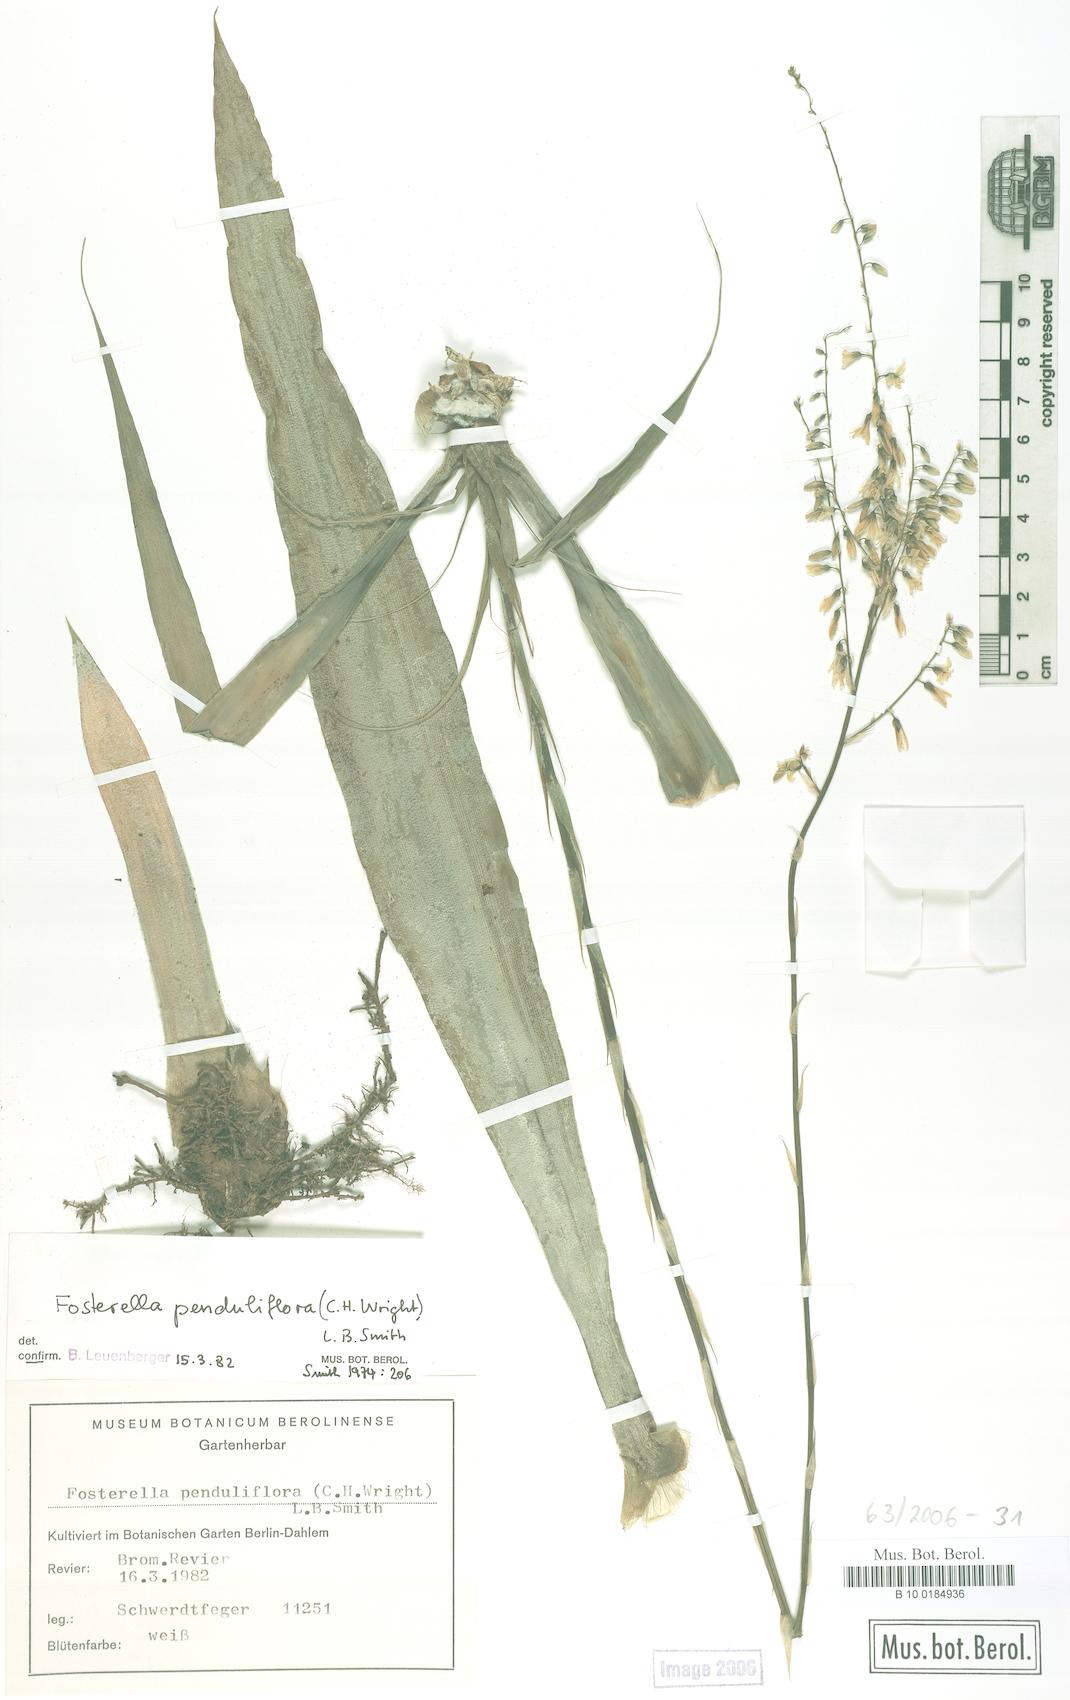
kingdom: Plantae
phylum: Tracheophyta
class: Liliopsida
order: Poales
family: Bromeliaceae
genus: Fosterella
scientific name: Fosterella penduliflora
